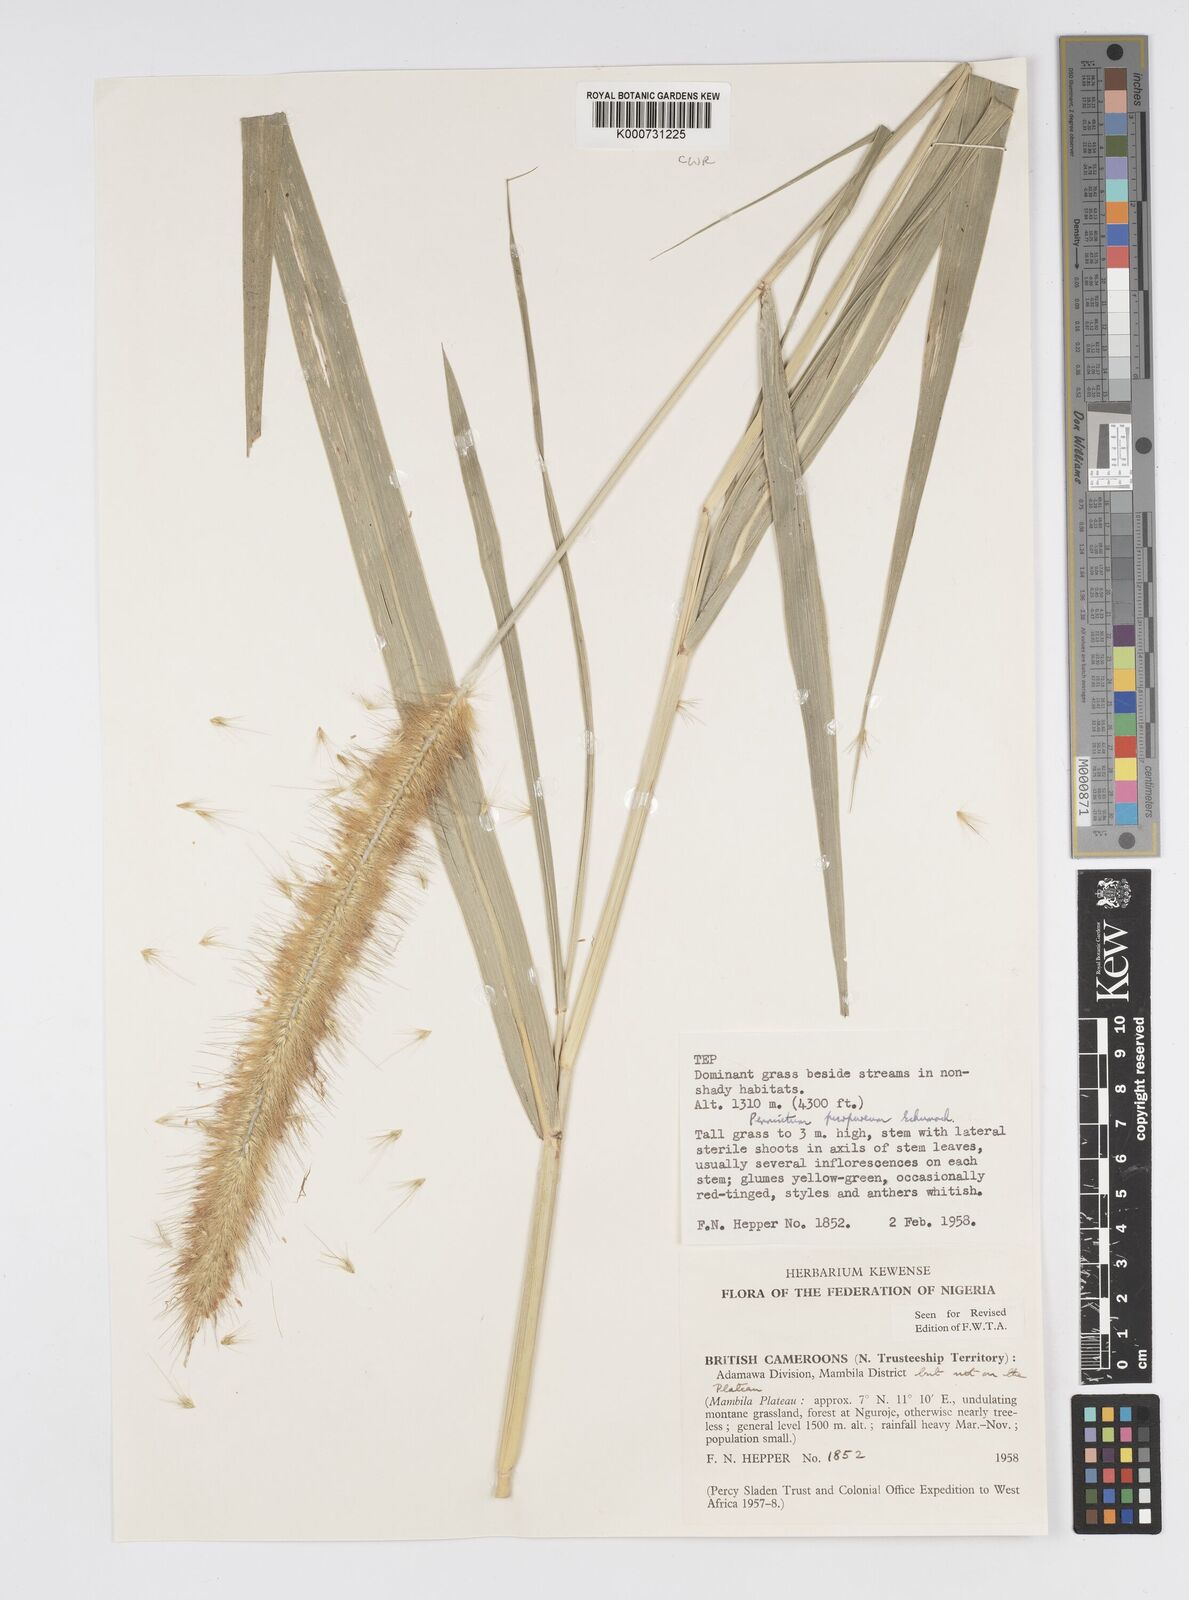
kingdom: Plantae
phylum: Tracheophyta
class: Liliopsida
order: Poales
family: Poaceae
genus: Cenchrus
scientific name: Cenchrus purpureus
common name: Elephant grass
